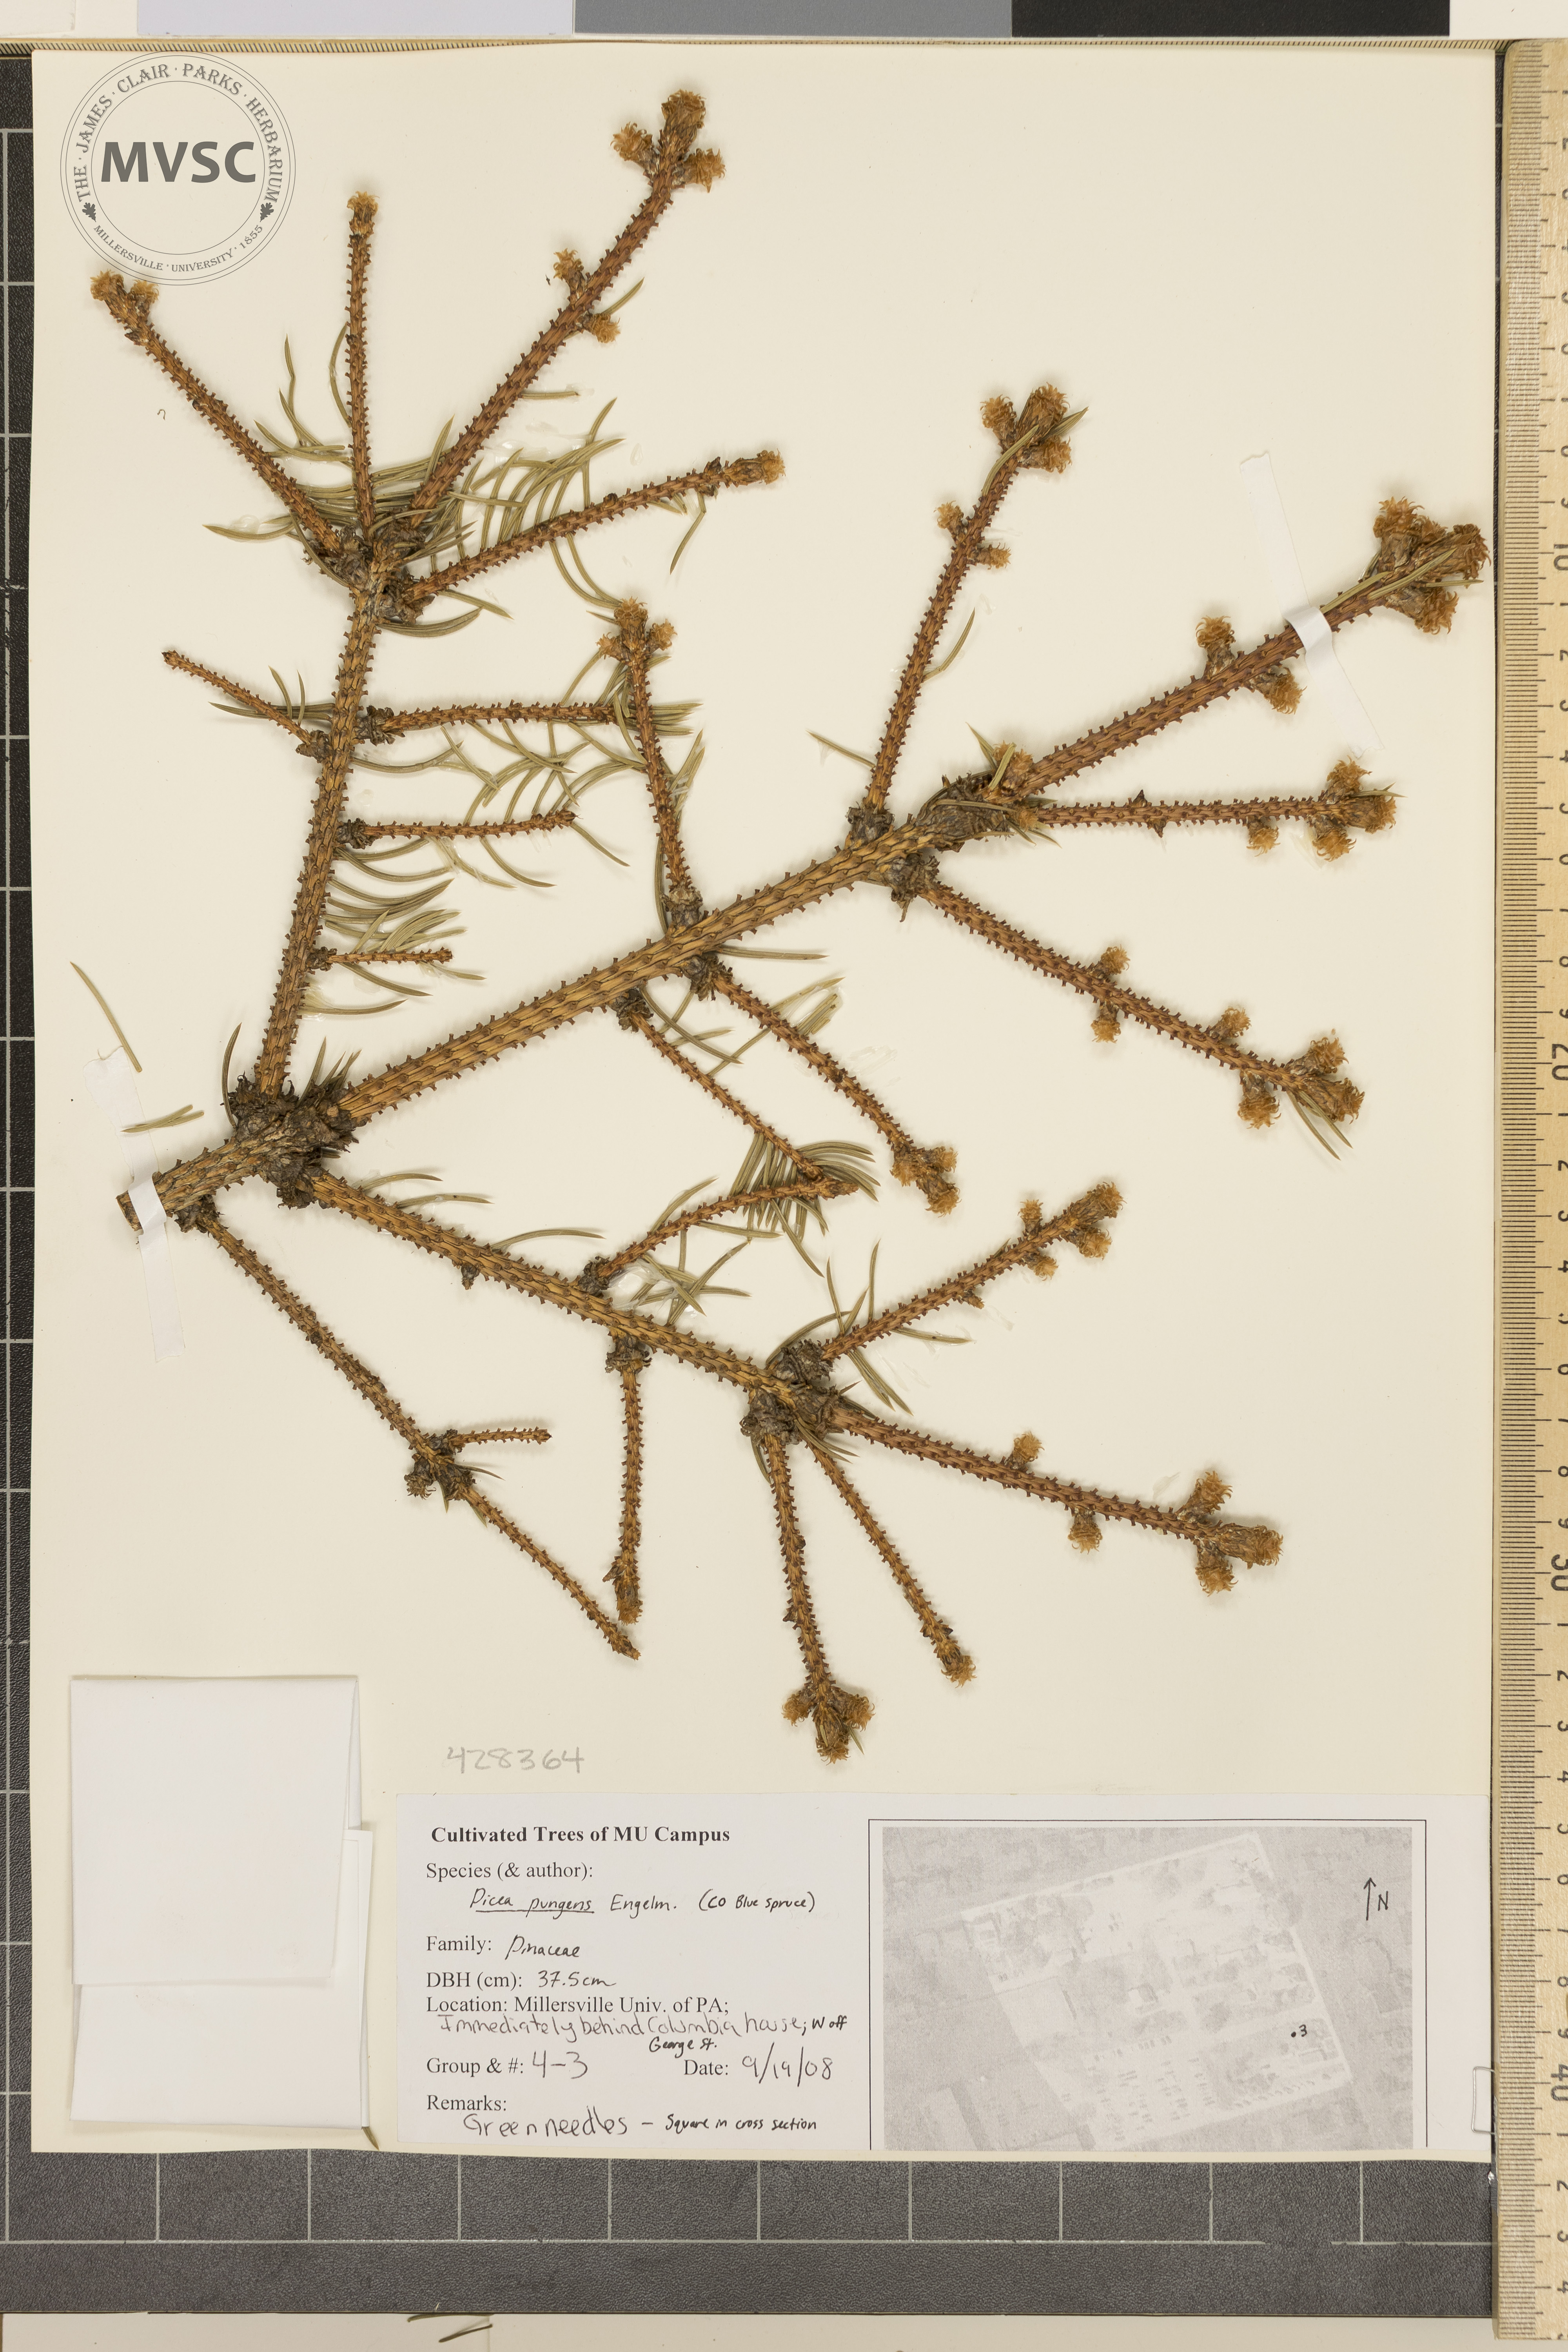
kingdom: Plantae
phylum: Tracheophyta
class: Pinopsida
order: Pinales
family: Pinaceae
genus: Picea
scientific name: Picea pungens
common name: Colorado Blue Spruce
